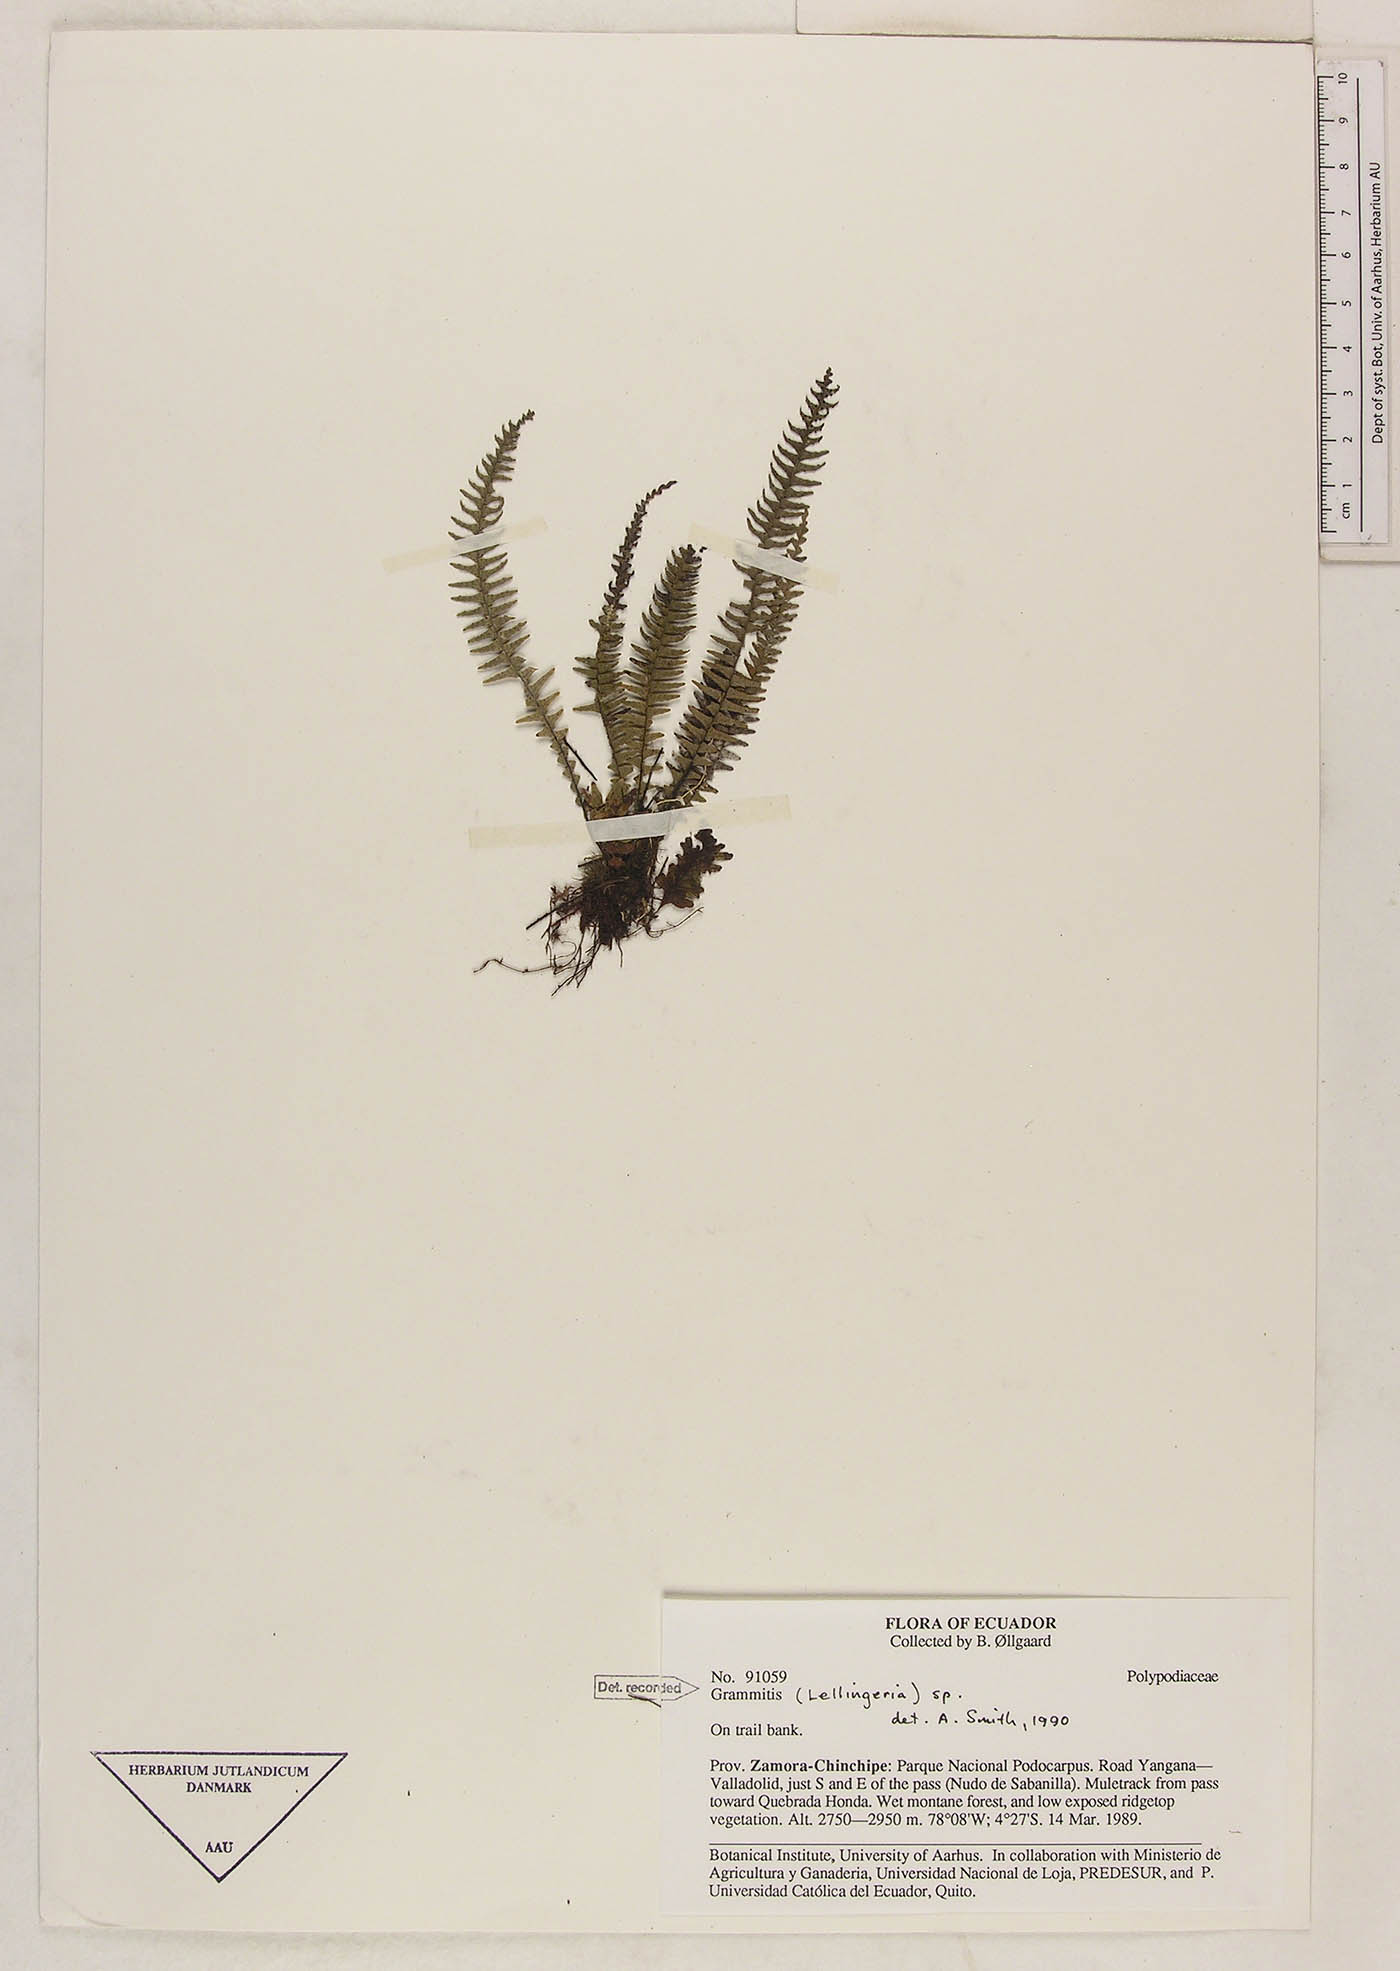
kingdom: Plantae
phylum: Tracheophyta
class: Polypodiopsida
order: Polypodiales
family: Polypodiaceae
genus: Lellingeria
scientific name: Lellingeria major
